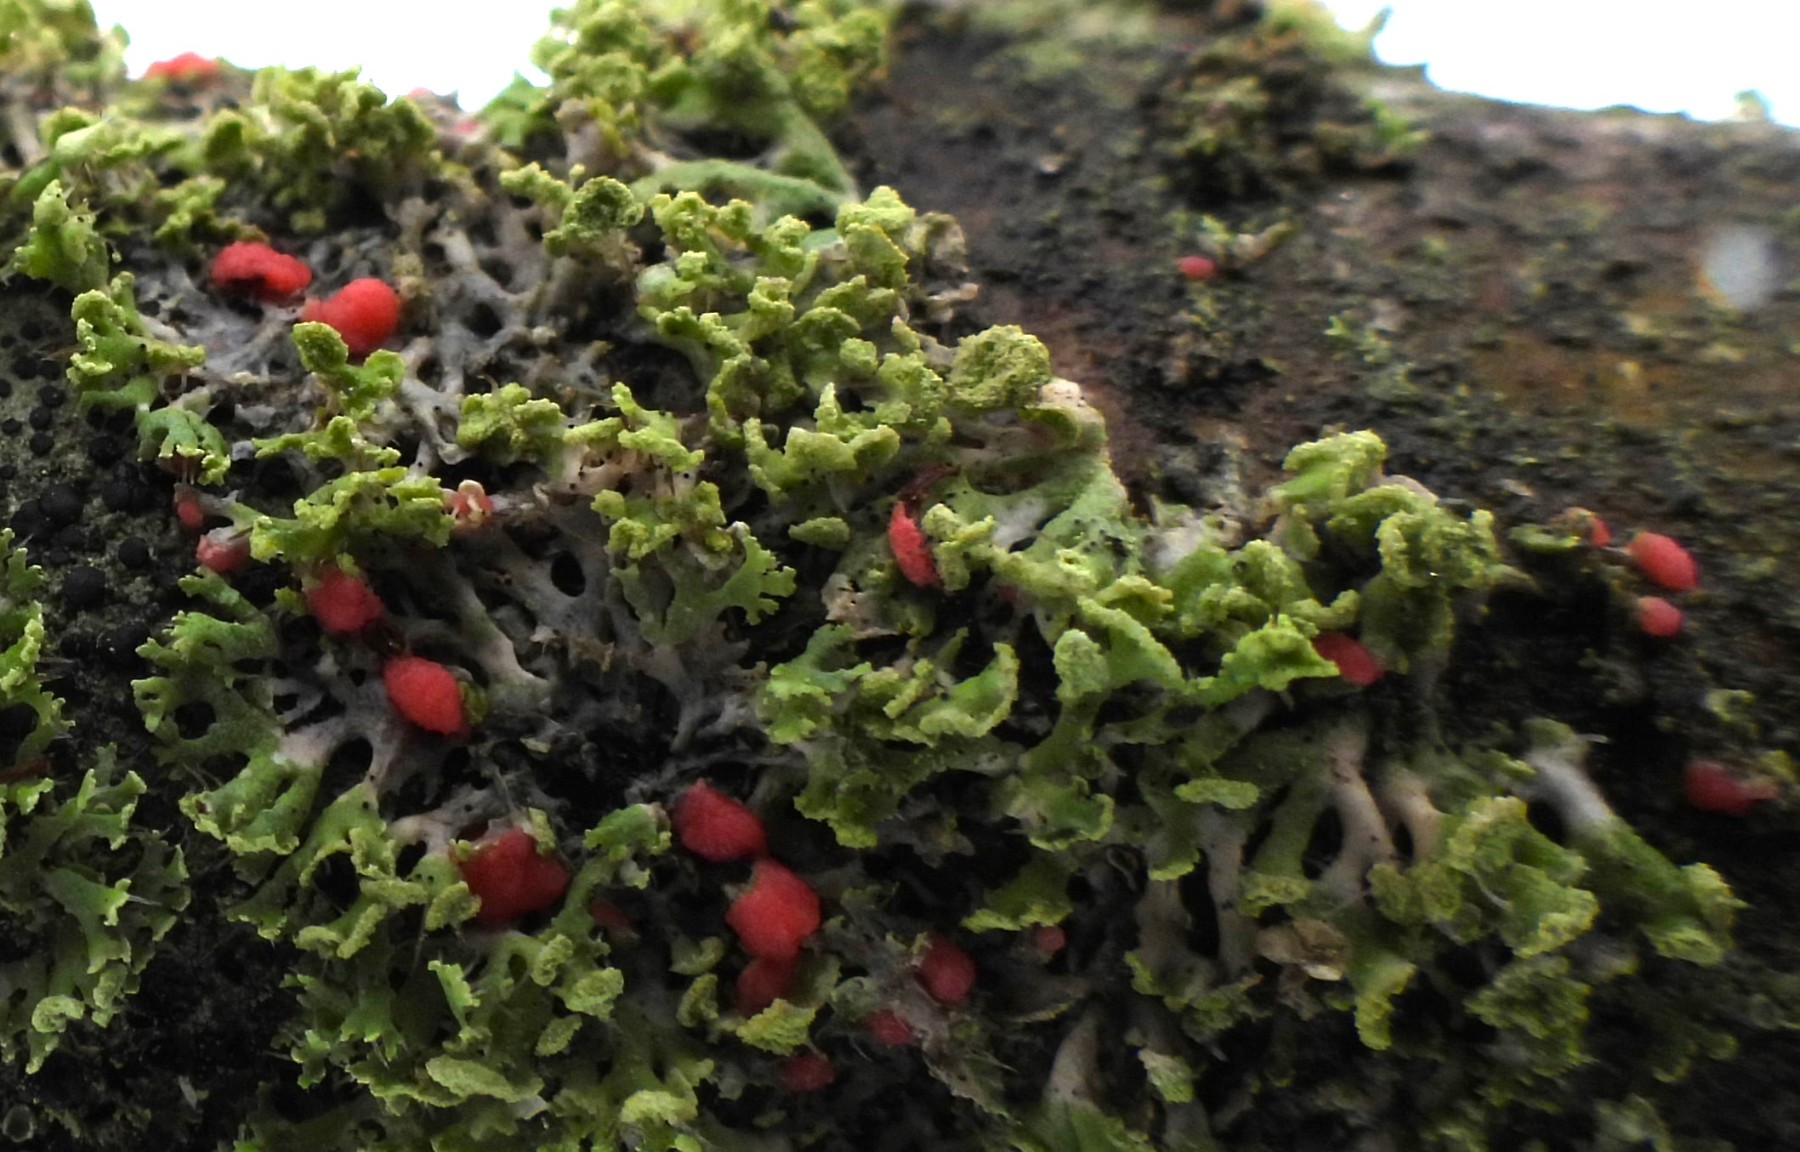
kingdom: Fungi
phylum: Ascomycota
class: Sordariomycetes
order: Hypocreales
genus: Illosporiopsis
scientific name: Illosporiopsis christiansenii
